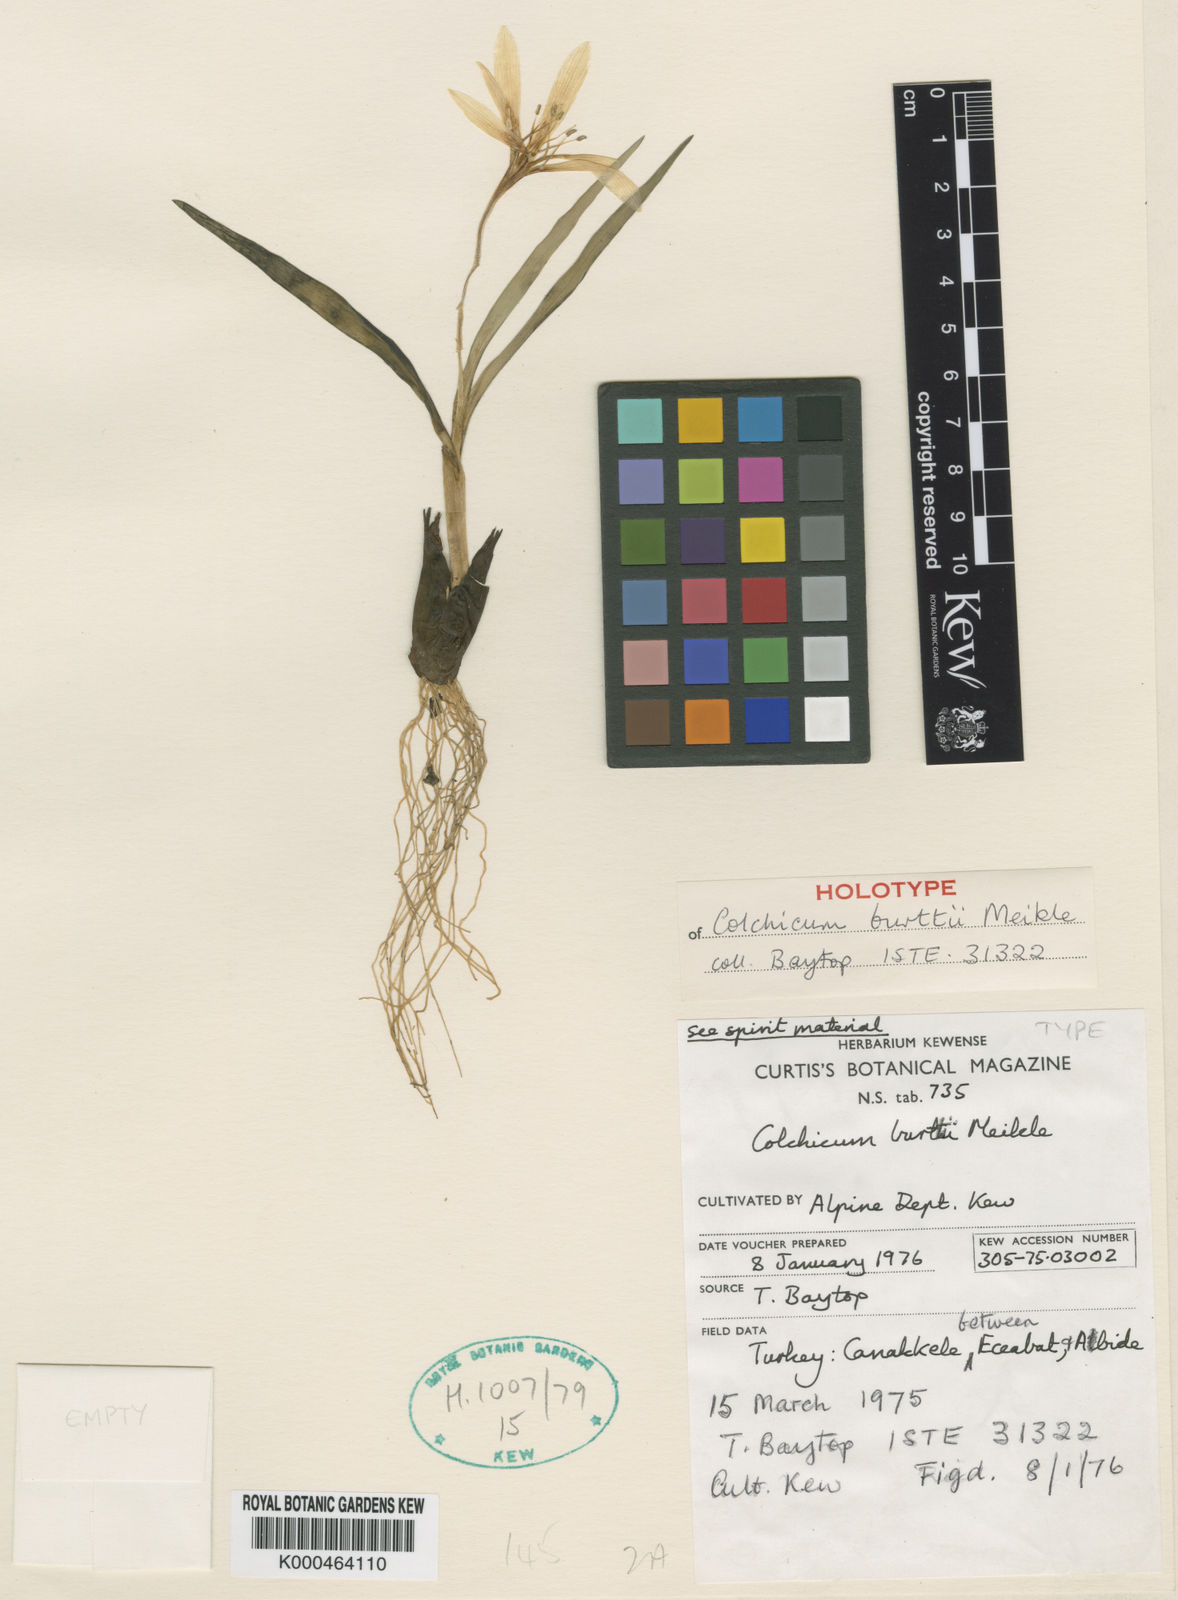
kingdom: Plantae
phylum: Tracheophyta
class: Liliopsida
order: Liliales
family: Colchicaceae
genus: Colchicum
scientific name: Colchicum burttii
